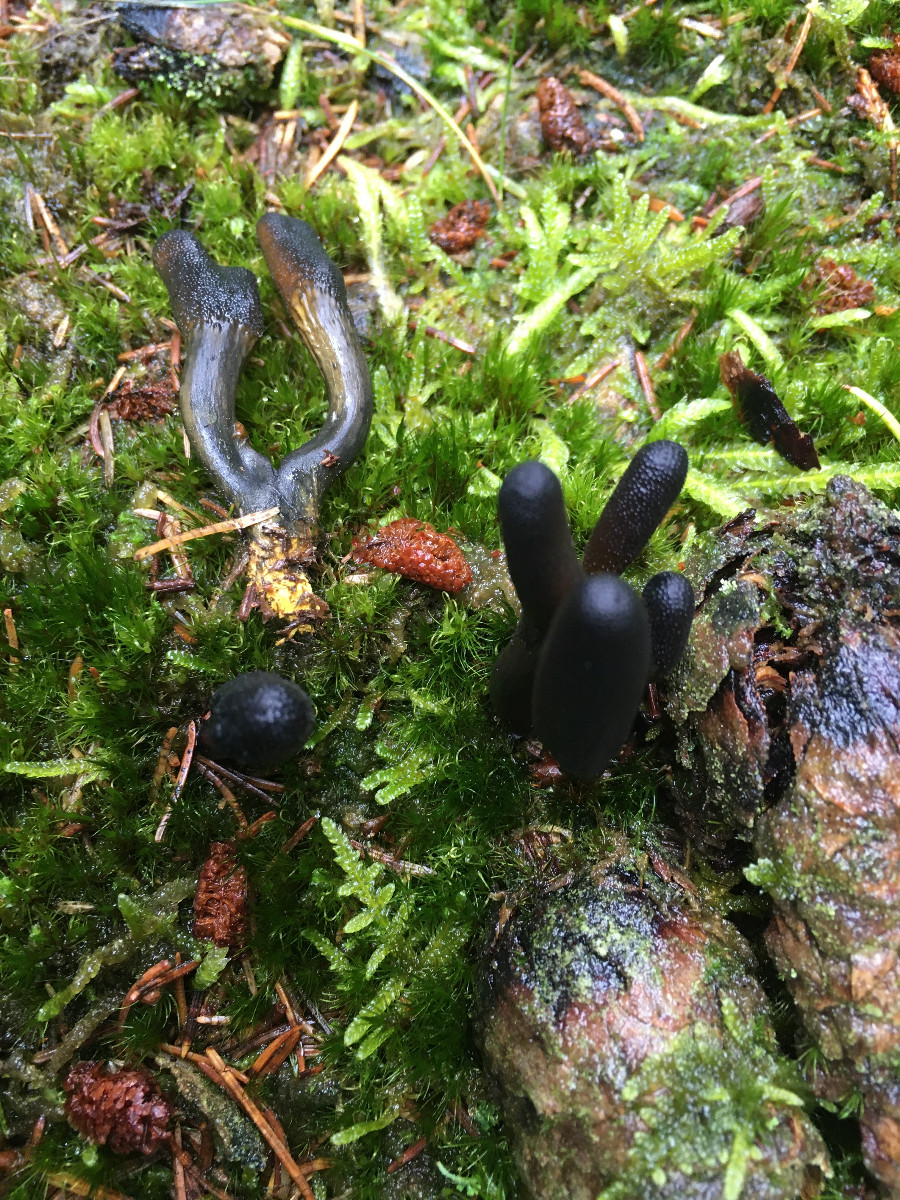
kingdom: Fungi
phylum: Ascomycota
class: Sordariomycetes
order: Hypocreales
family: Ophiocordycipitaceae
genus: Tolypocladium
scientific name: Tolypocladium ophioglossoides
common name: slank snyltekølle
